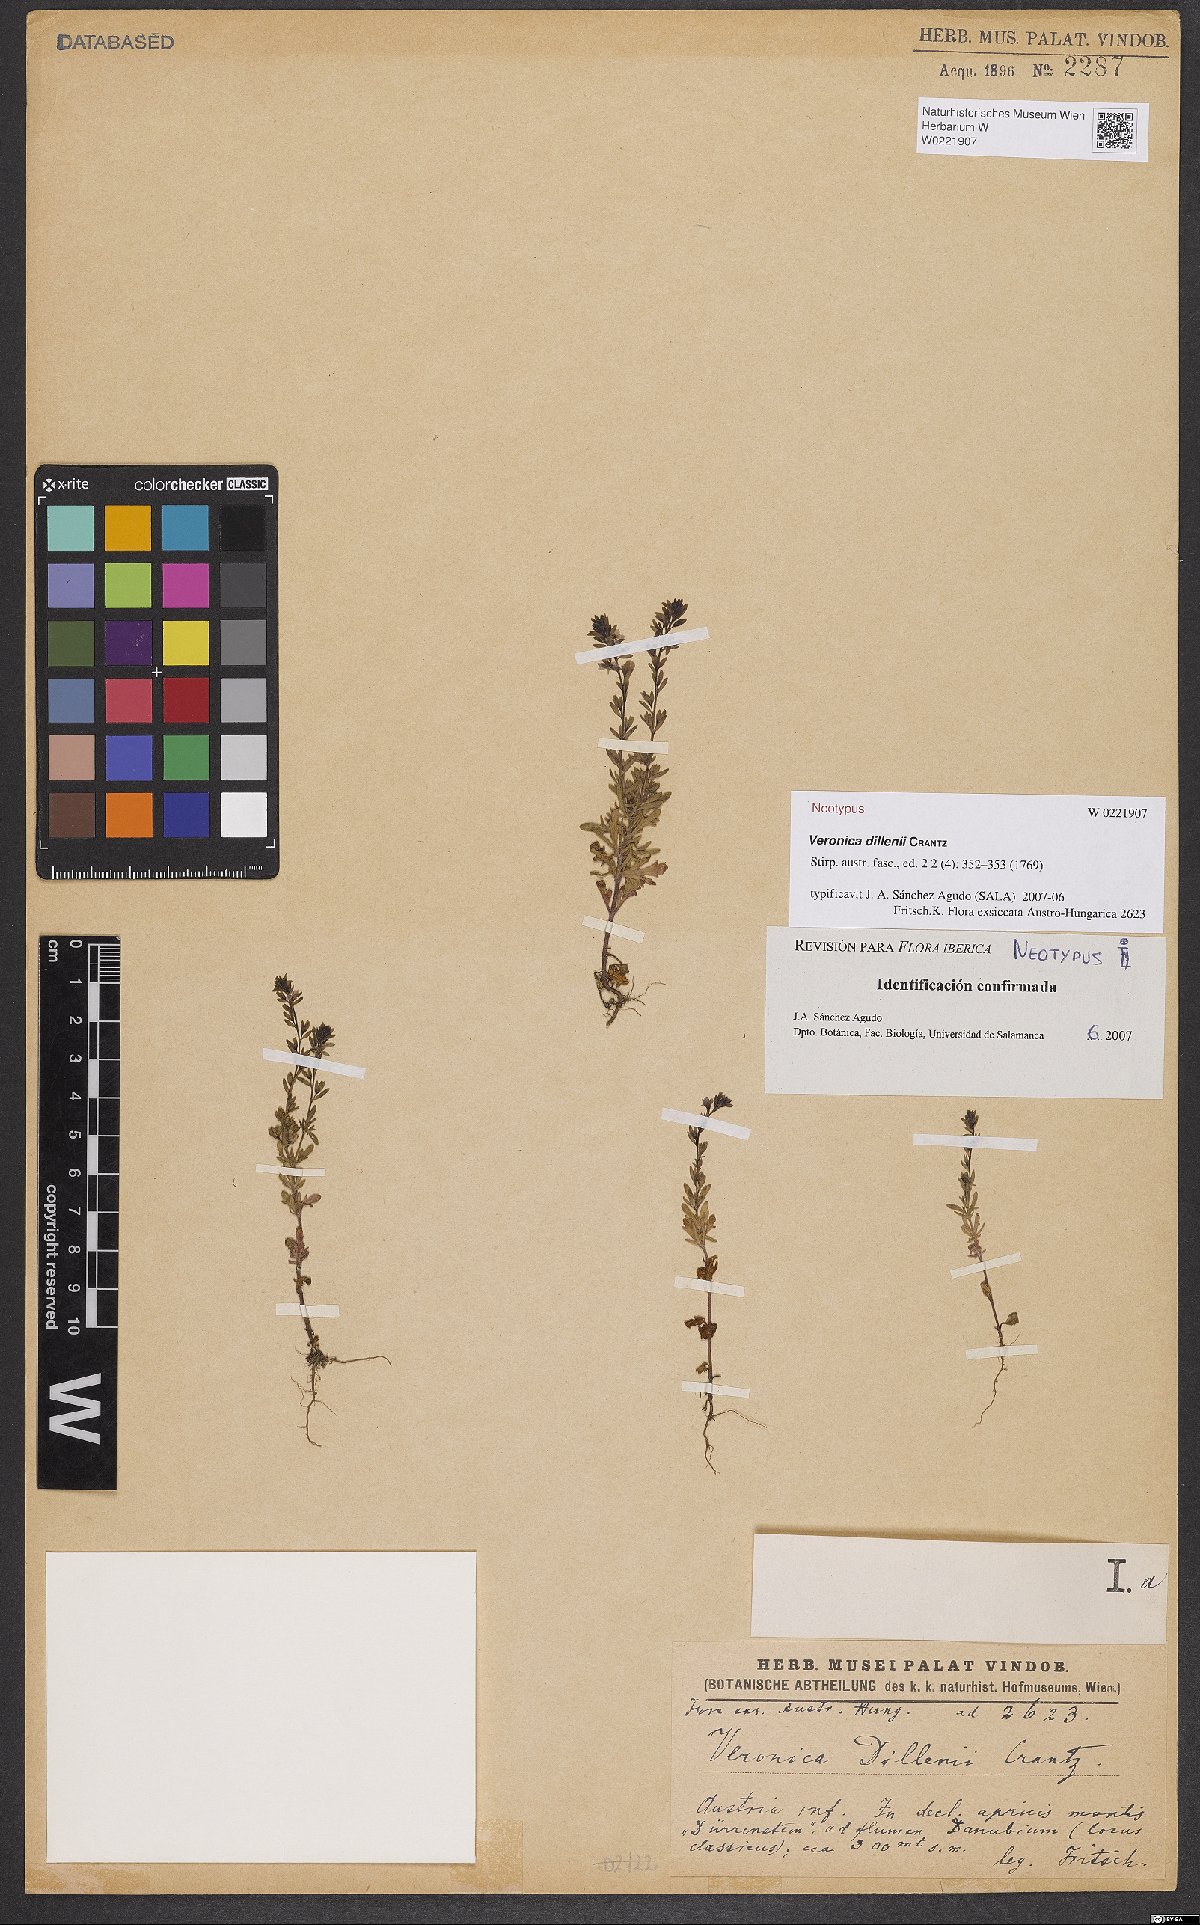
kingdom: Plantae
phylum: Tracheophyta
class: Magnoliopsida
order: Lamiales
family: Plantaginaceae
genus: Veronica
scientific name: Veronica dillenii
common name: Dillenius' speedwell
